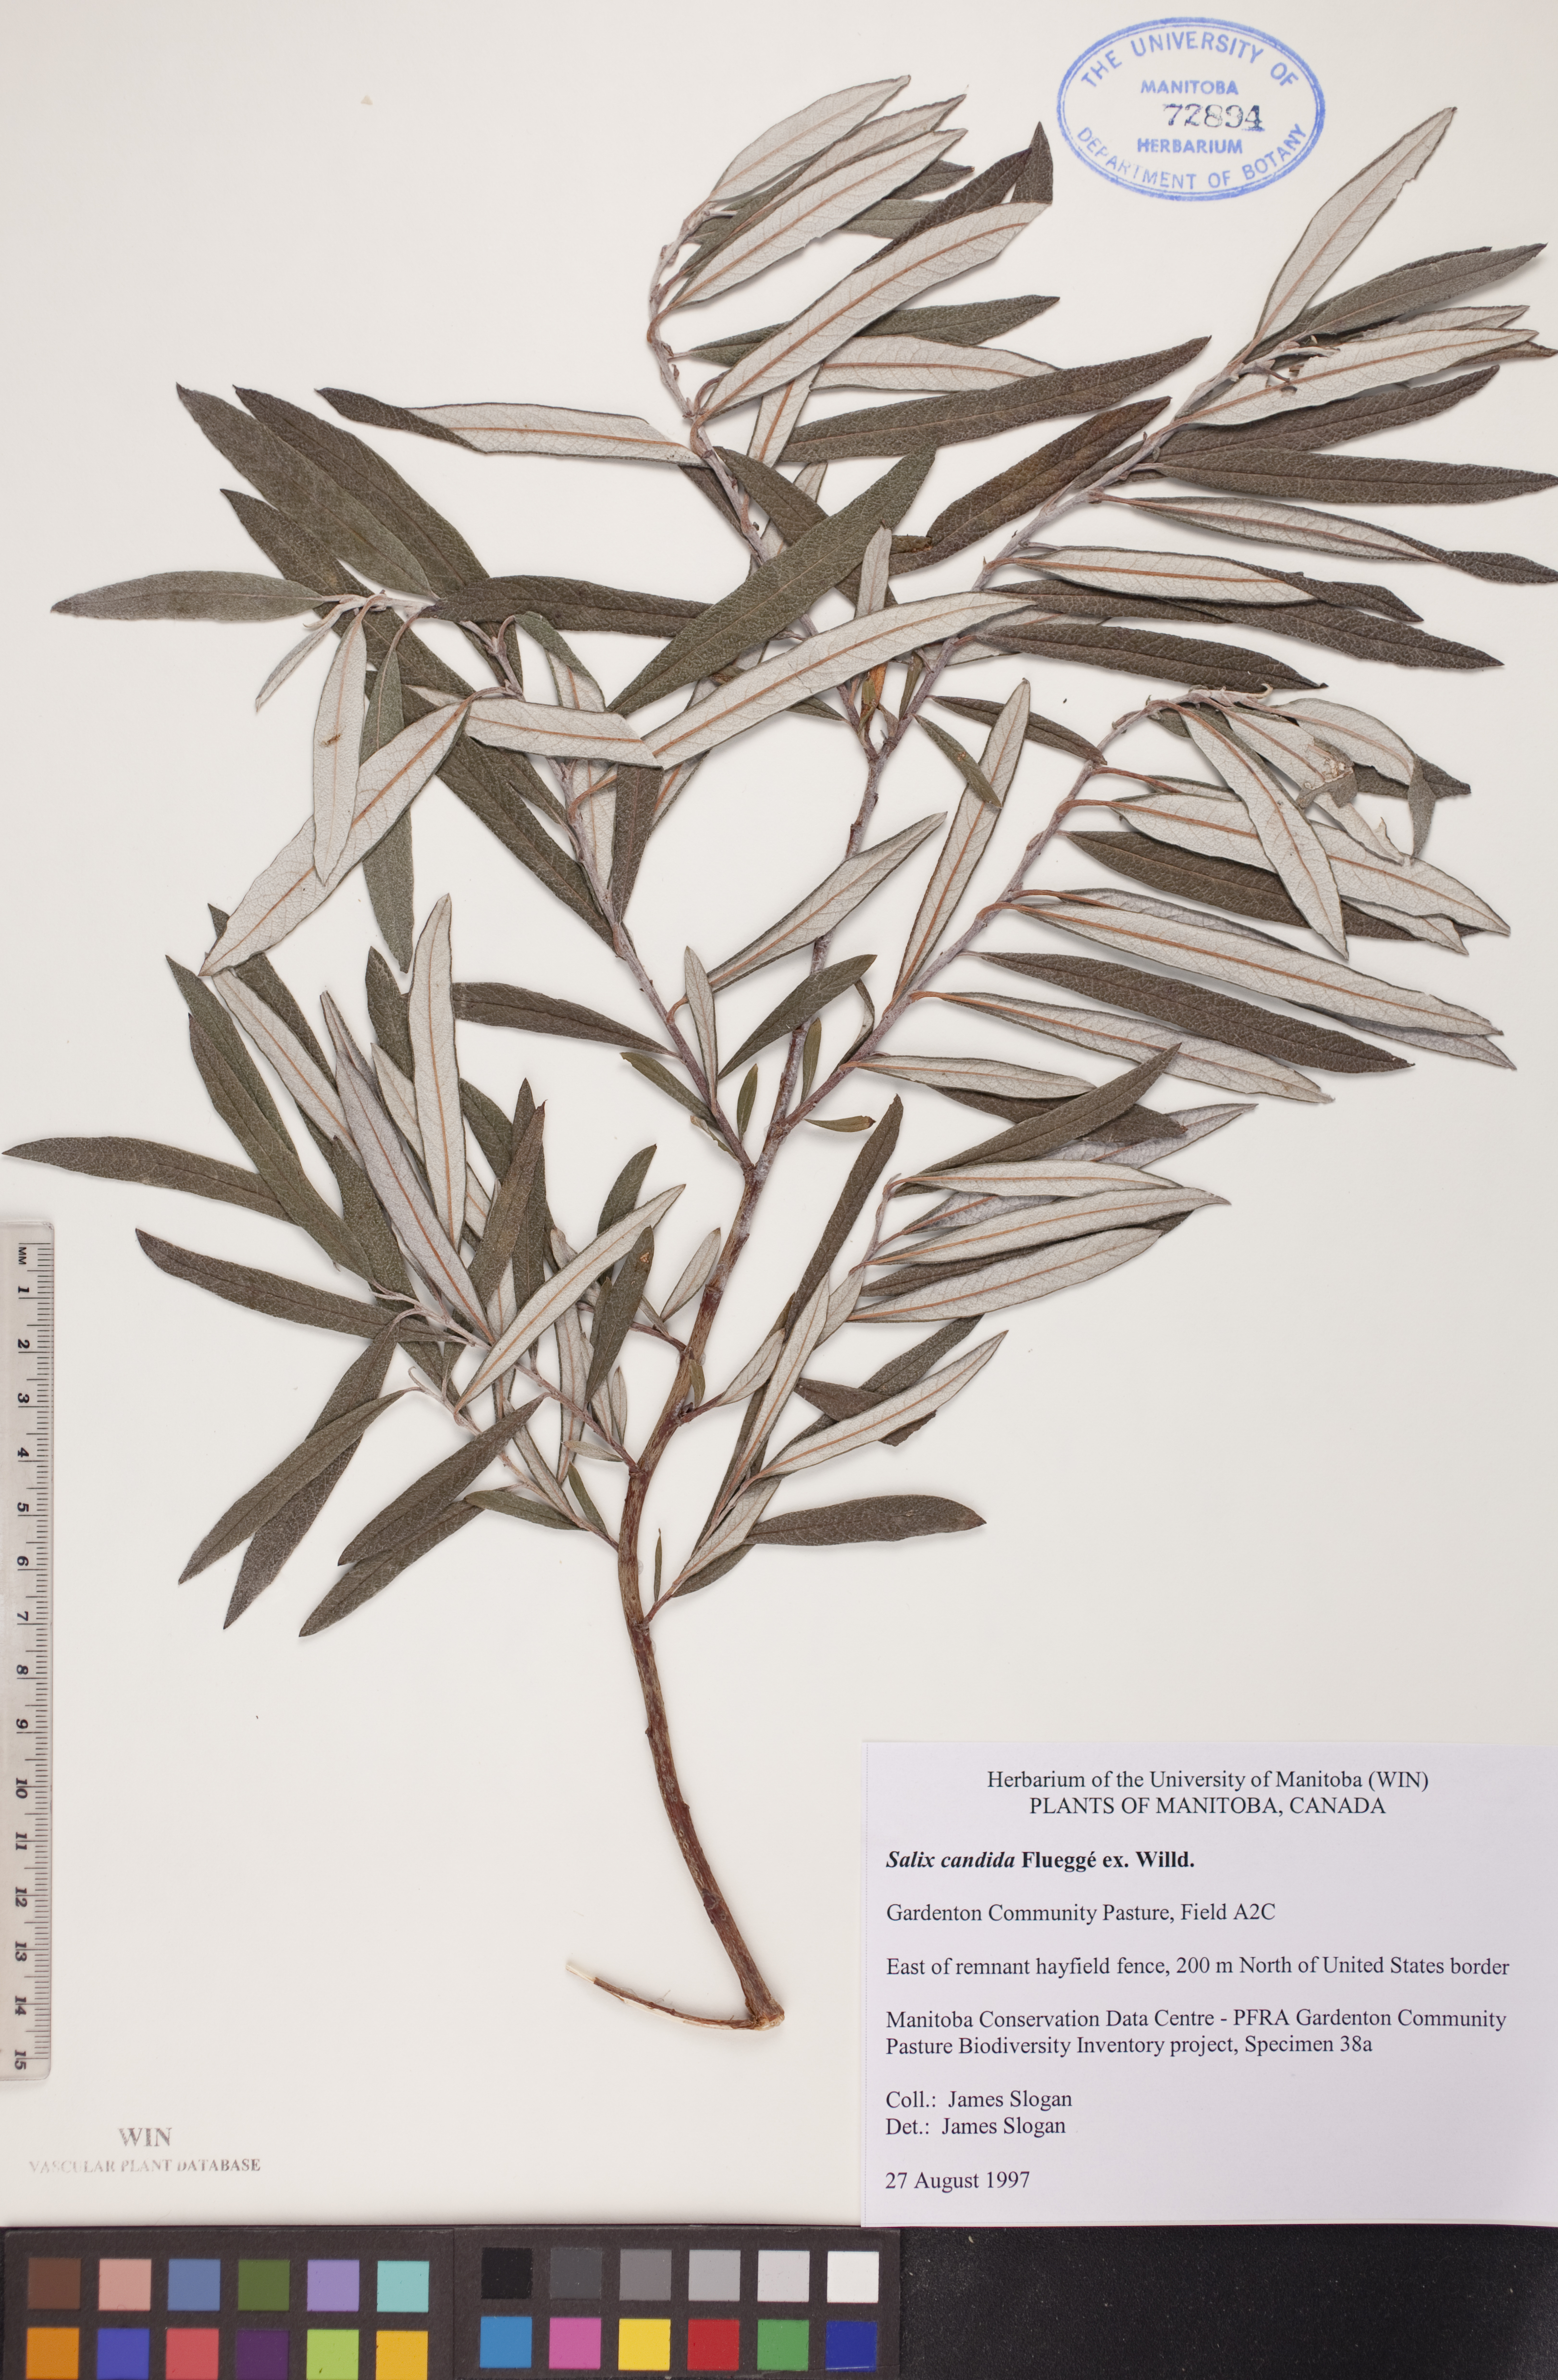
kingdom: Plantae
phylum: Tracheophyta
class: Magnoliopsida
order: Malpighiales
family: Salicaceae
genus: Salix
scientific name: Salix candida
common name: Hoary willow
